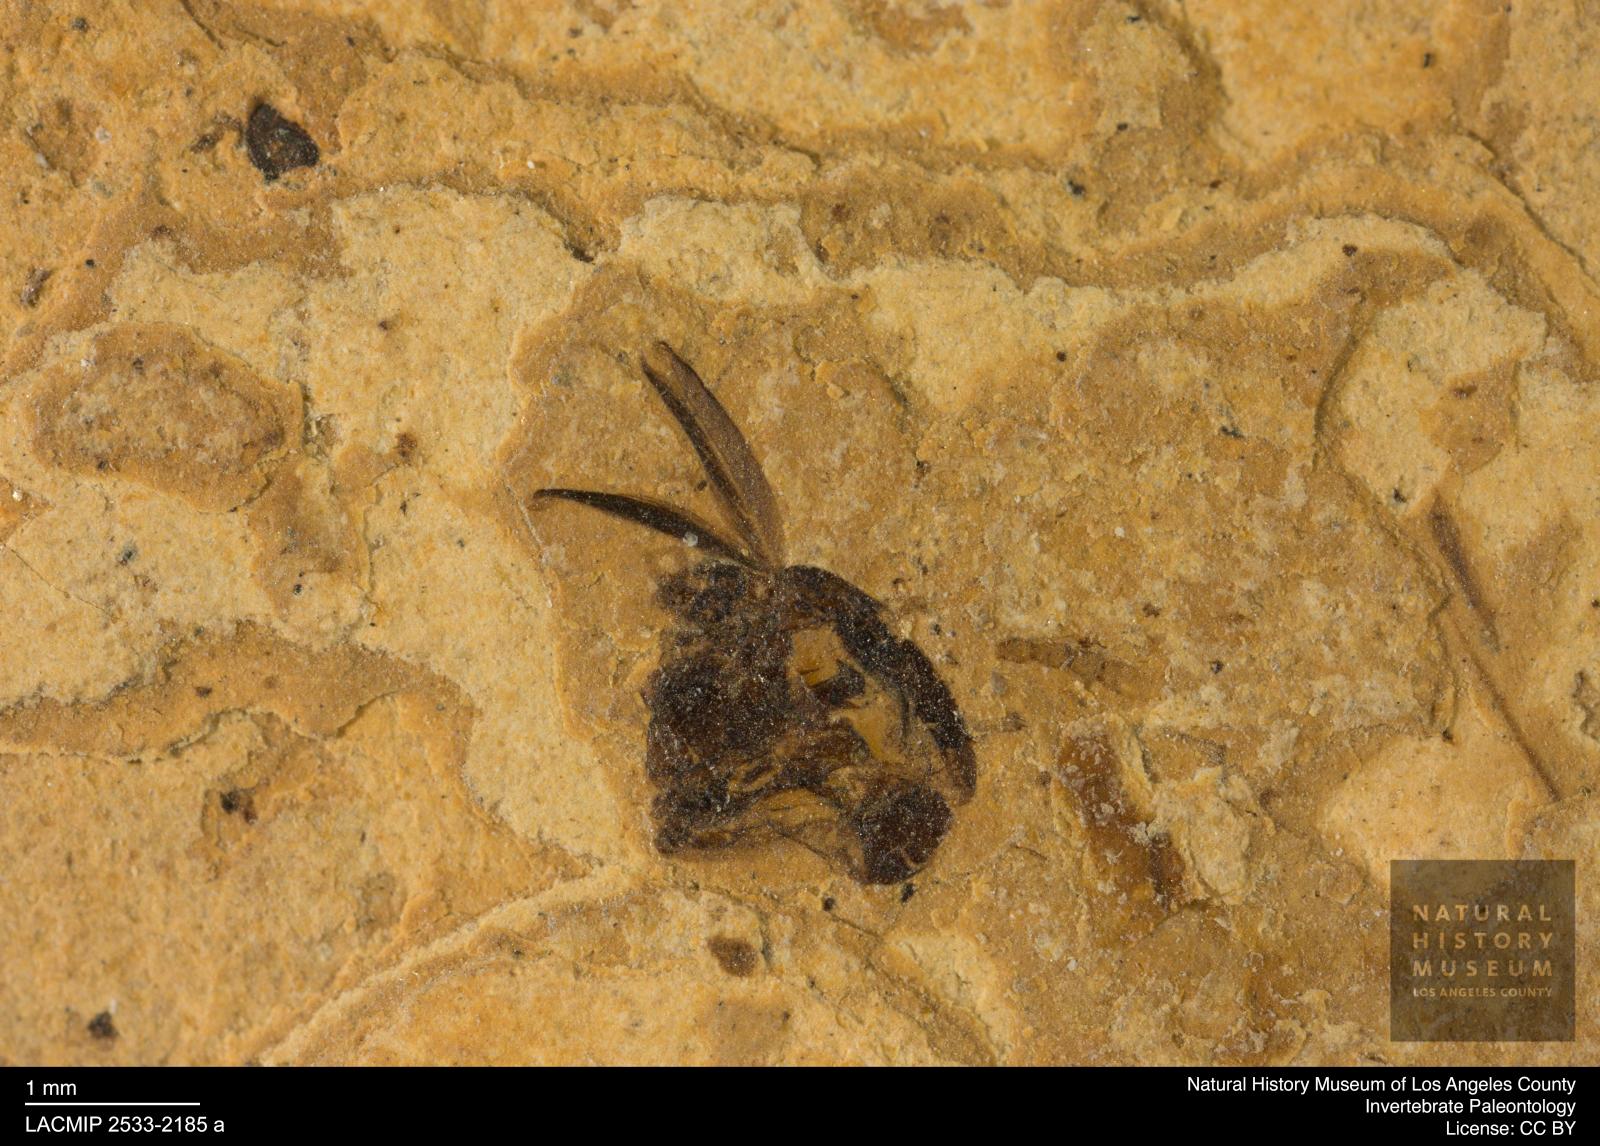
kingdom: Animalia
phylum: Arthropoda
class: Insecta
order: Diptera
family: Chironomidae
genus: Procladius
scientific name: Procladius
